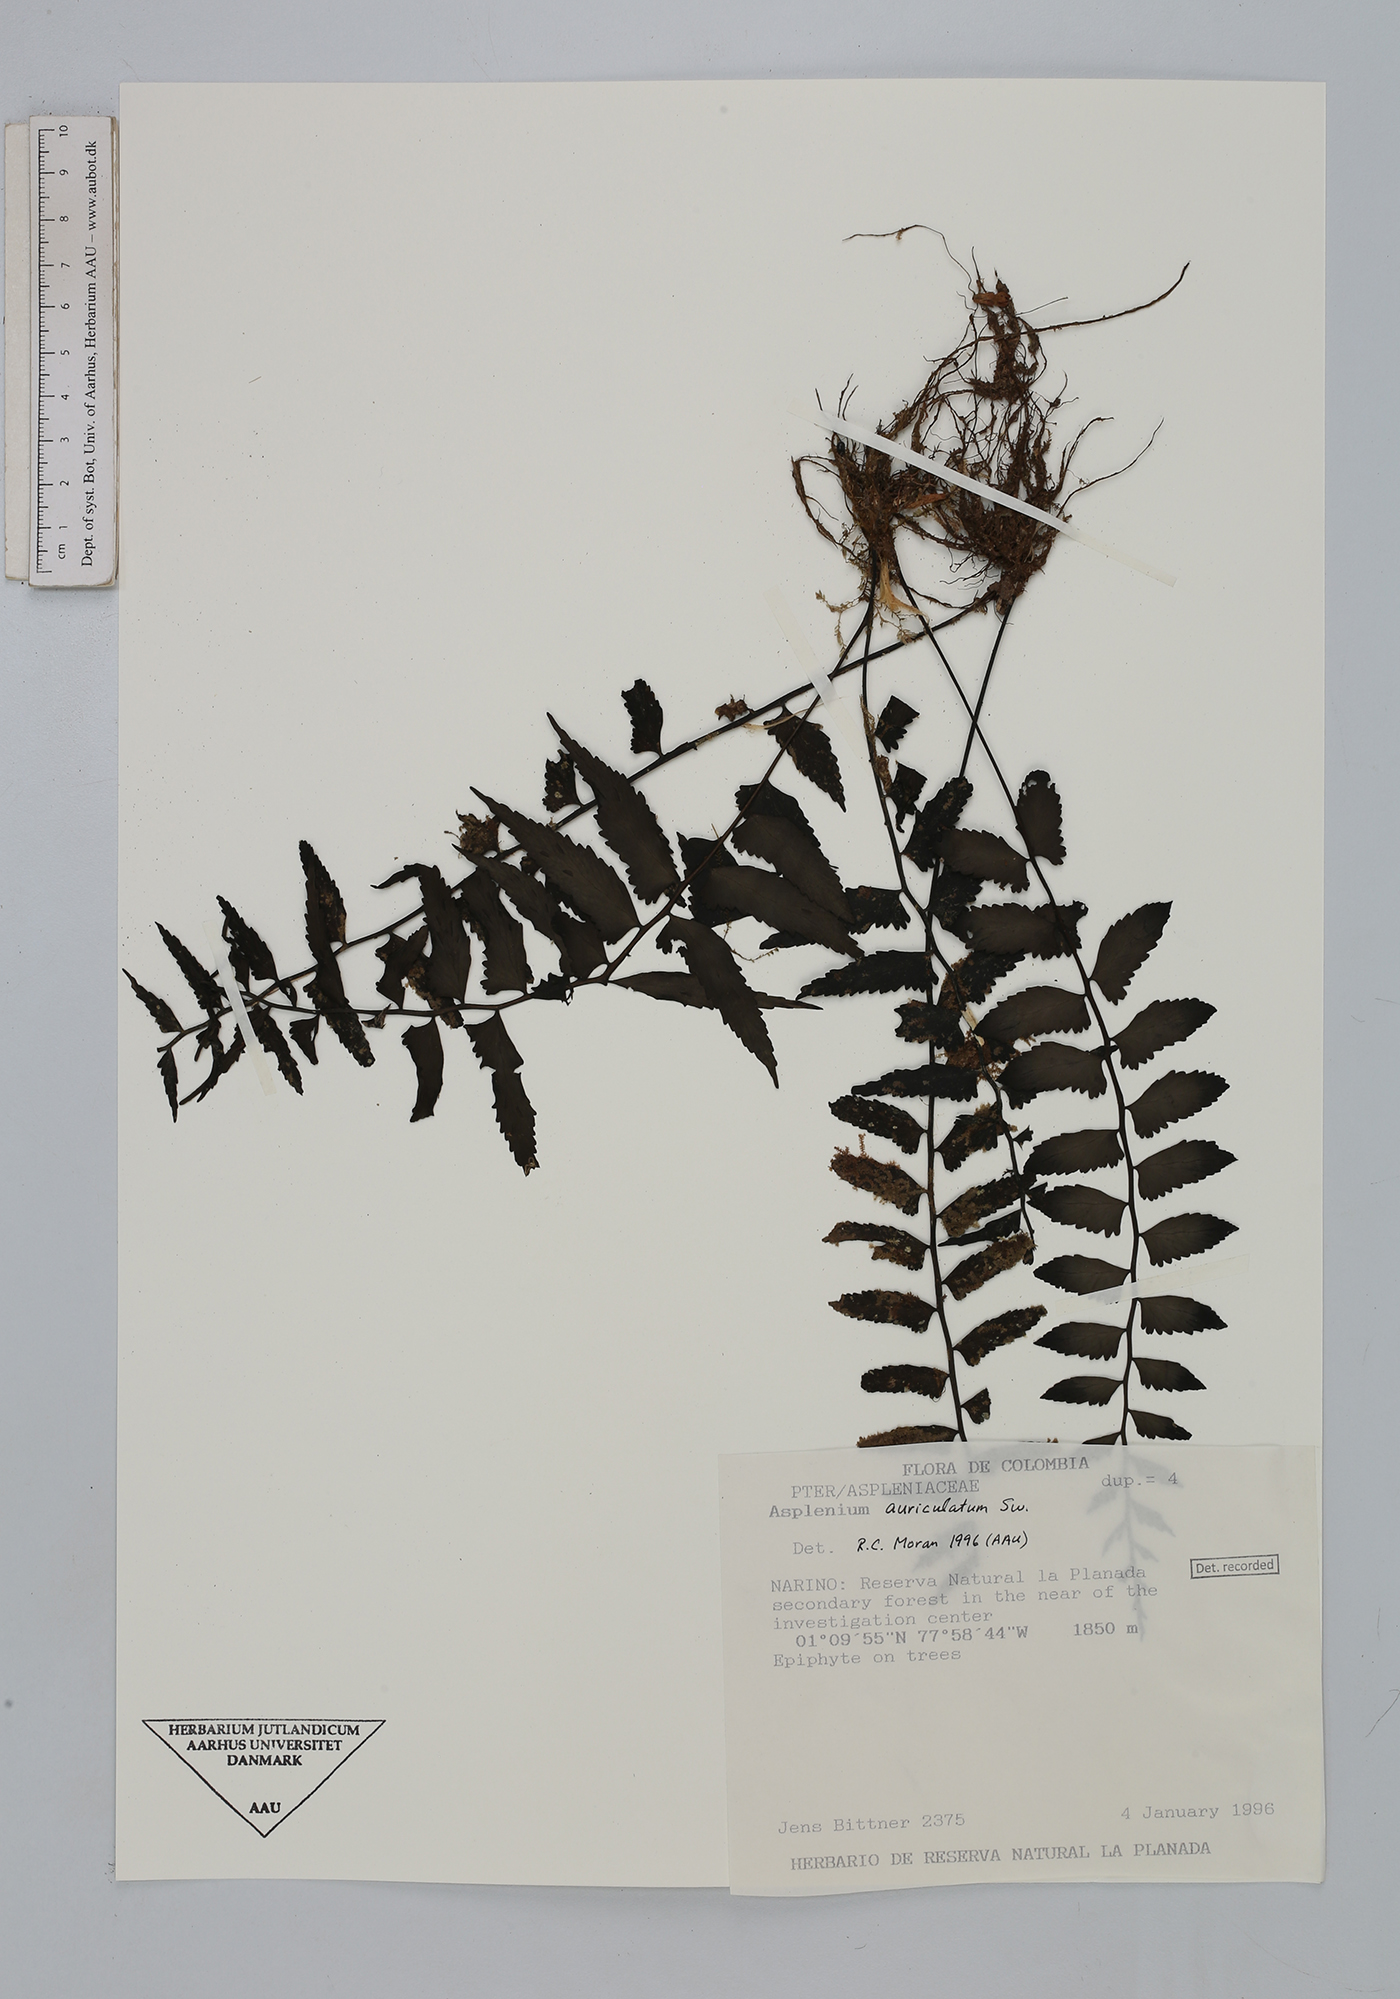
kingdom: Plantae
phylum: Tracheophyta
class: Polypodiopsida
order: Polypodiales
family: Aspleniaceae
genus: Asplenium
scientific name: Asplenium auriculatum
